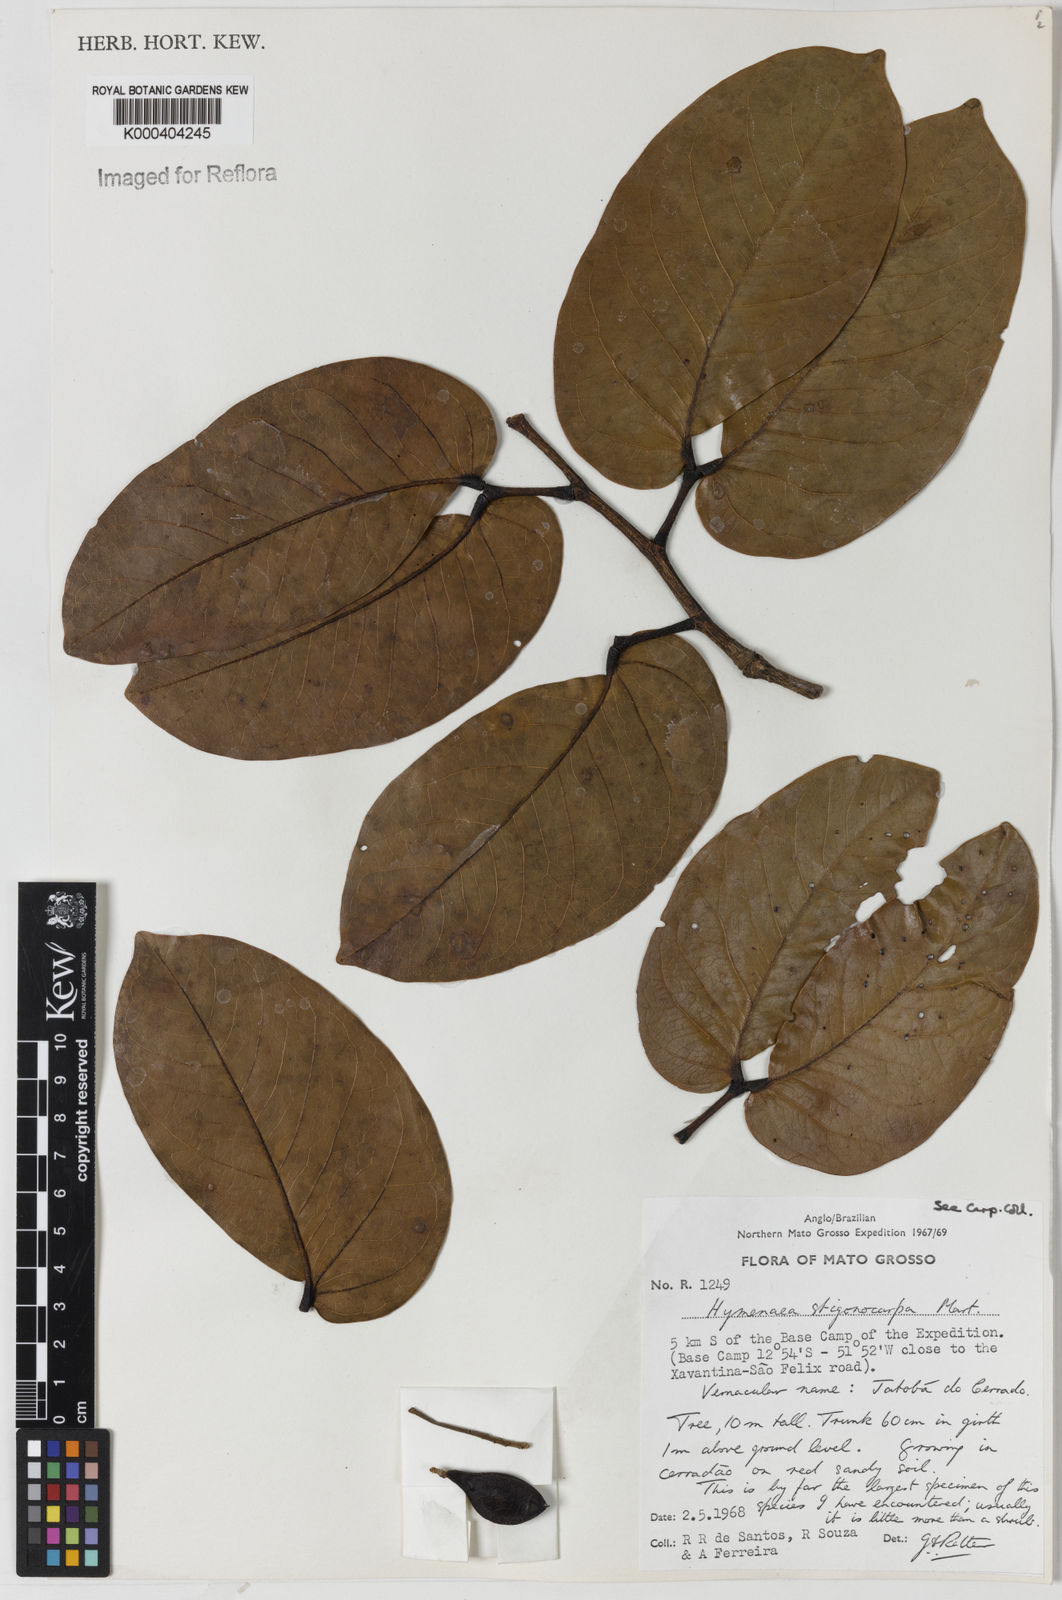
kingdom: Plantae
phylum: Tracheophyta
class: Magnoliopsida
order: Fabales
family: Fabaceae
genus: Hymenaea
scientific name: Hymenaea stigonocarpa
